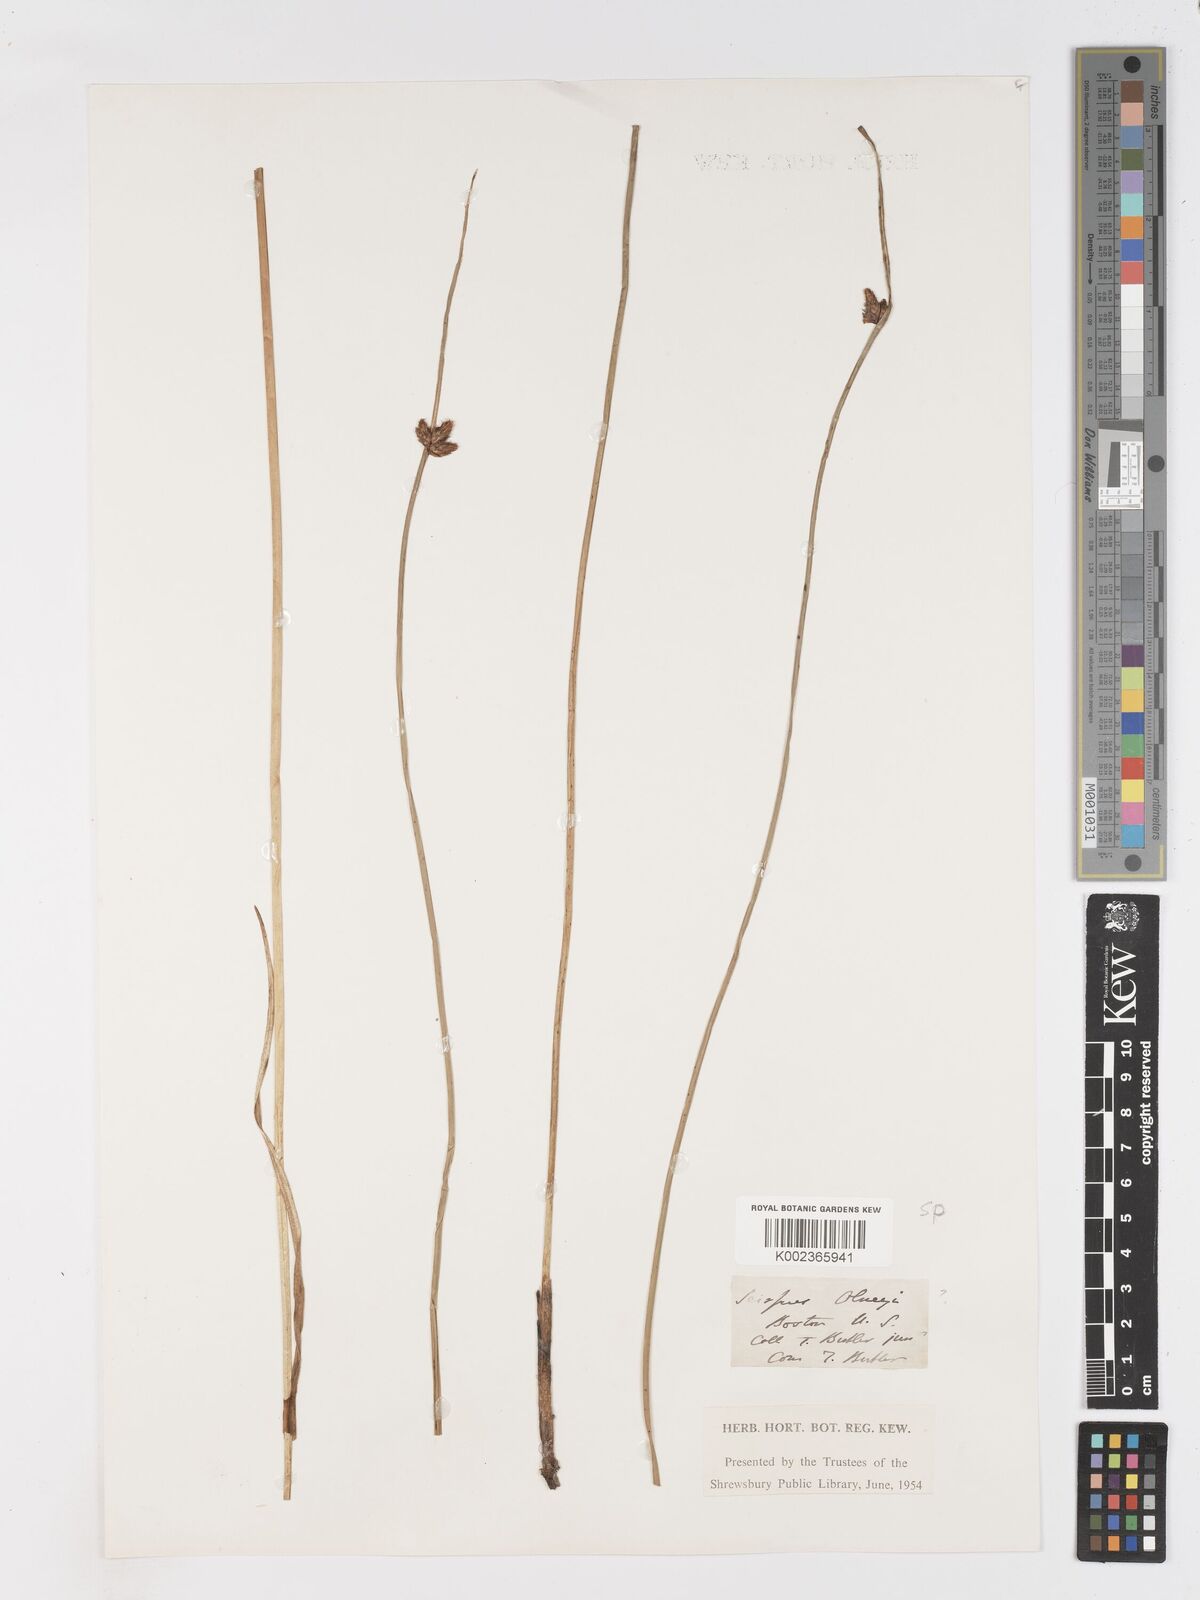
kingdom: Plantae
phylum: Tracheophyta
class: Liliopsida
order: Poales
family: Cyperaceae
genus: Schoenoplectus
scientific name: Schoenoplectus
